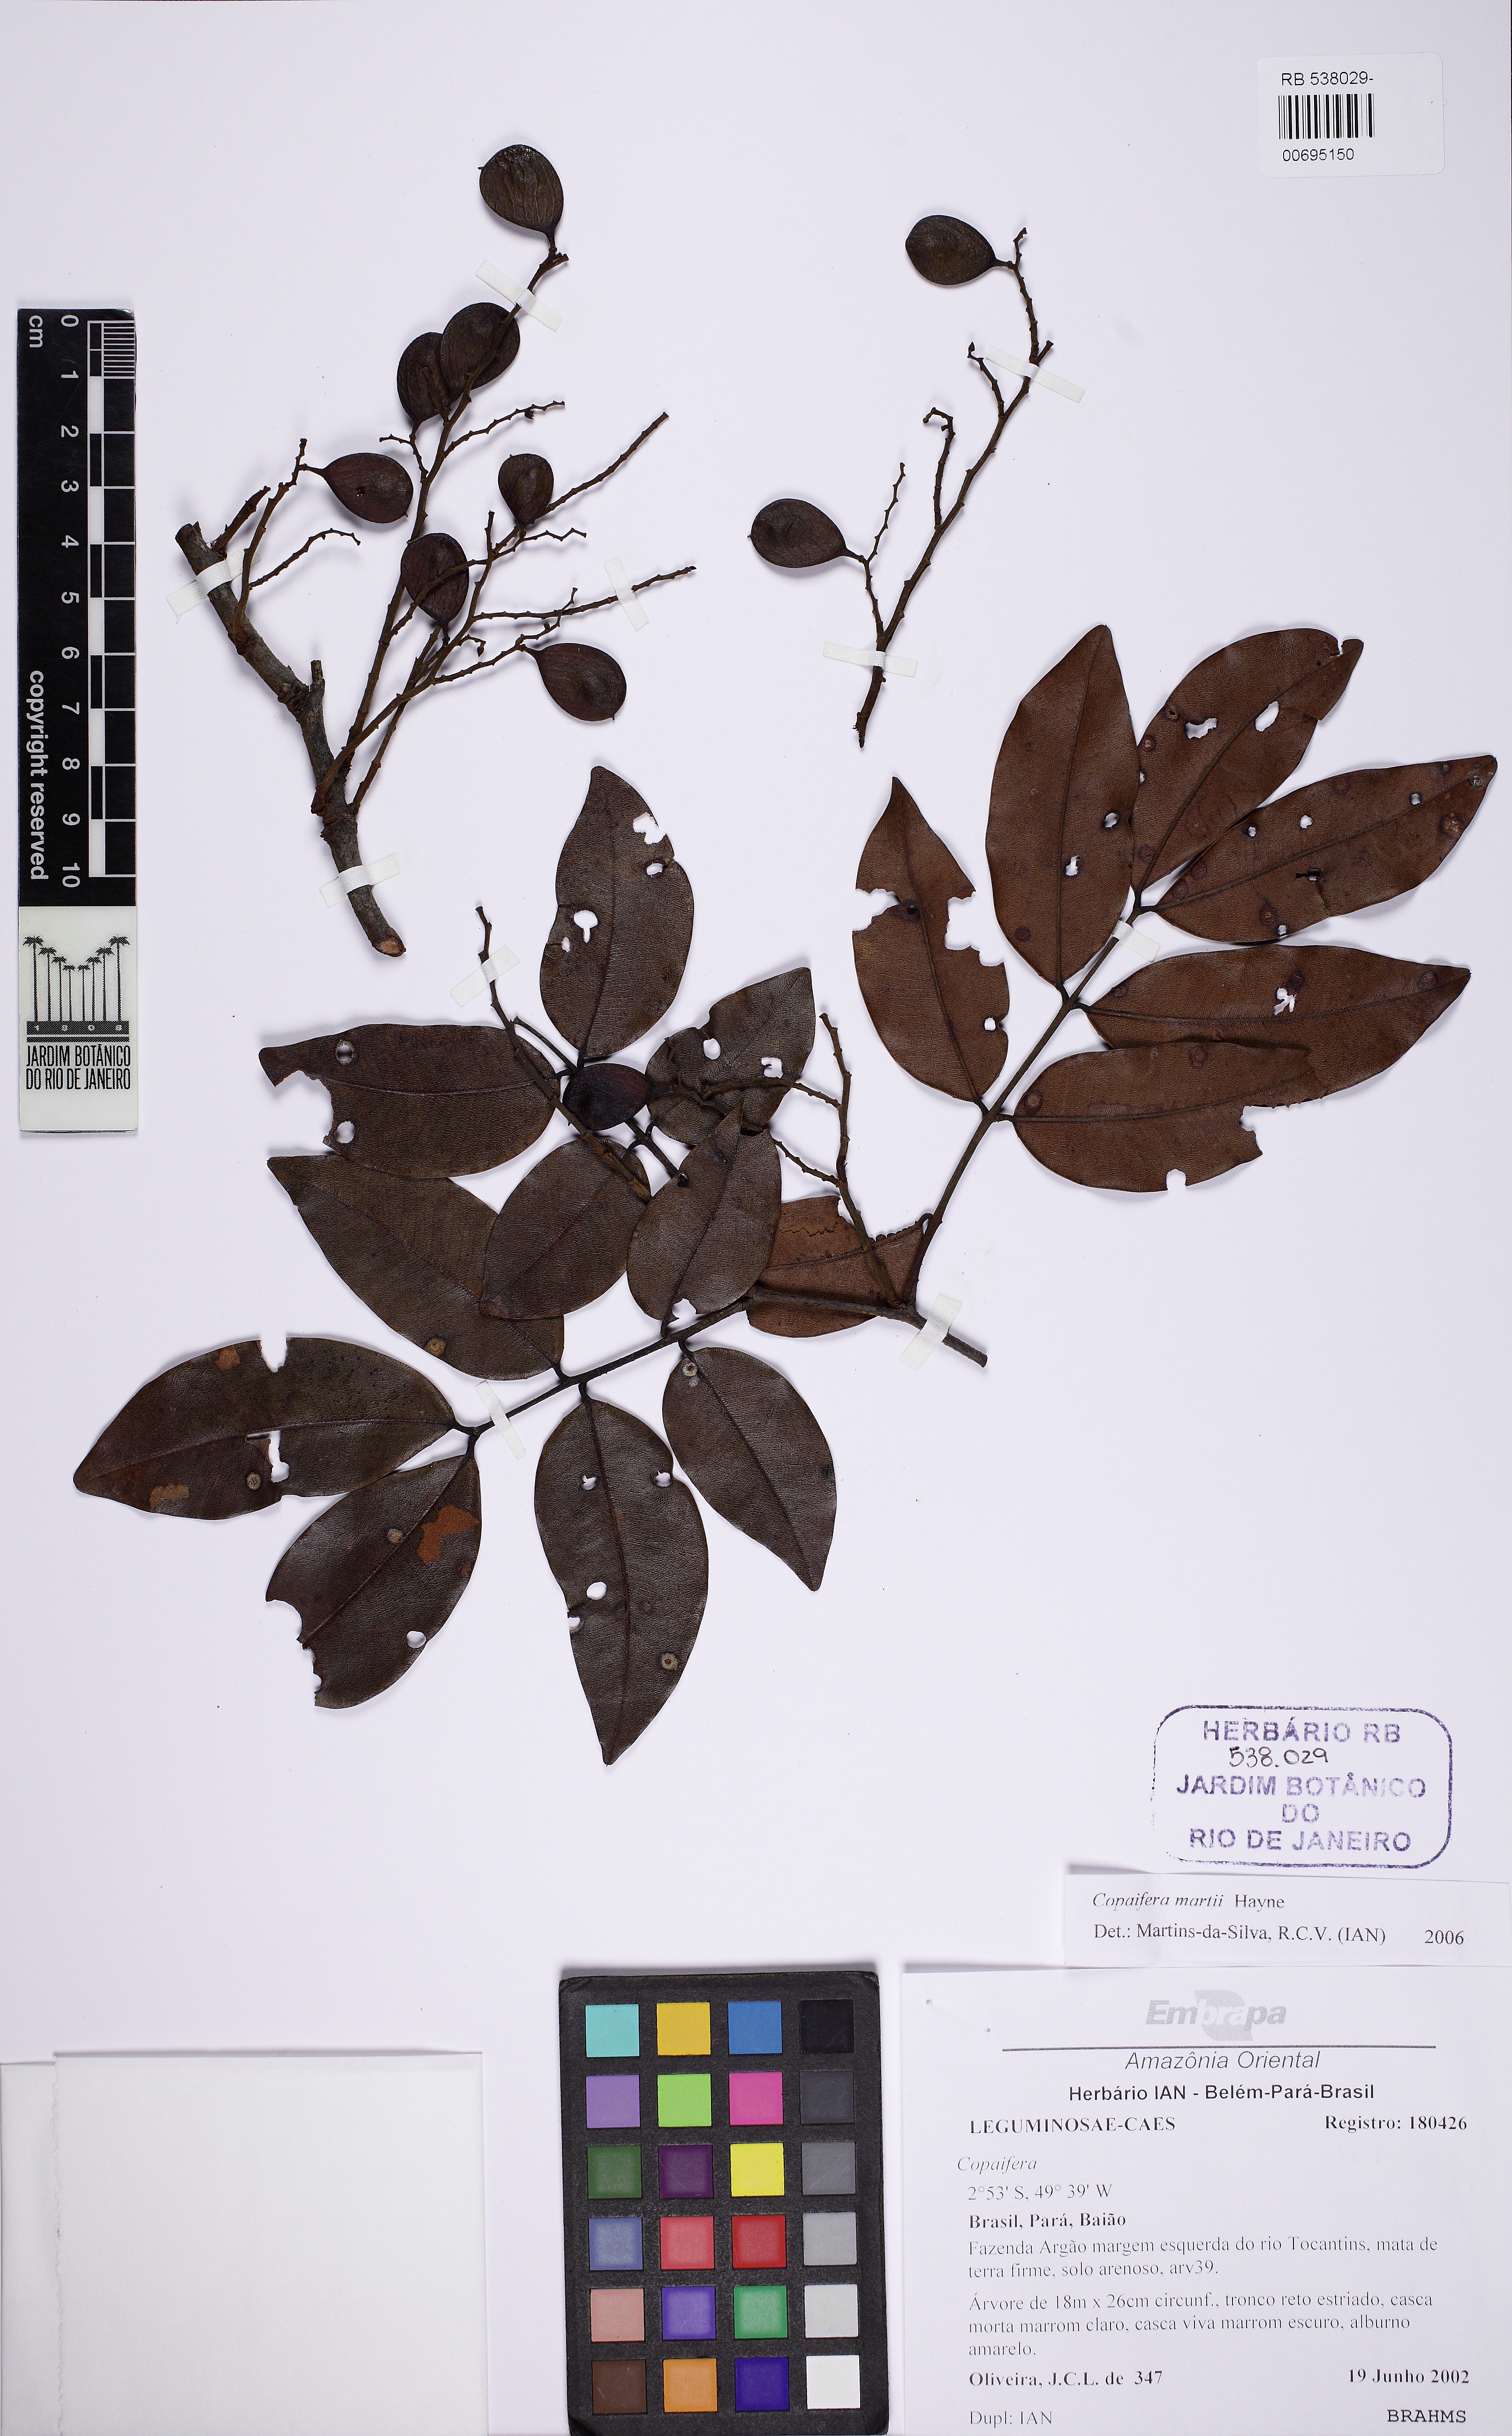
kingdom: Plantae
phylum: Tracheophyta
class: Magnoliopsida
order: Fabales
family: Fabaceae
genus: Copaifera
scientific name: Copaifera martii
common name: Copaiba
